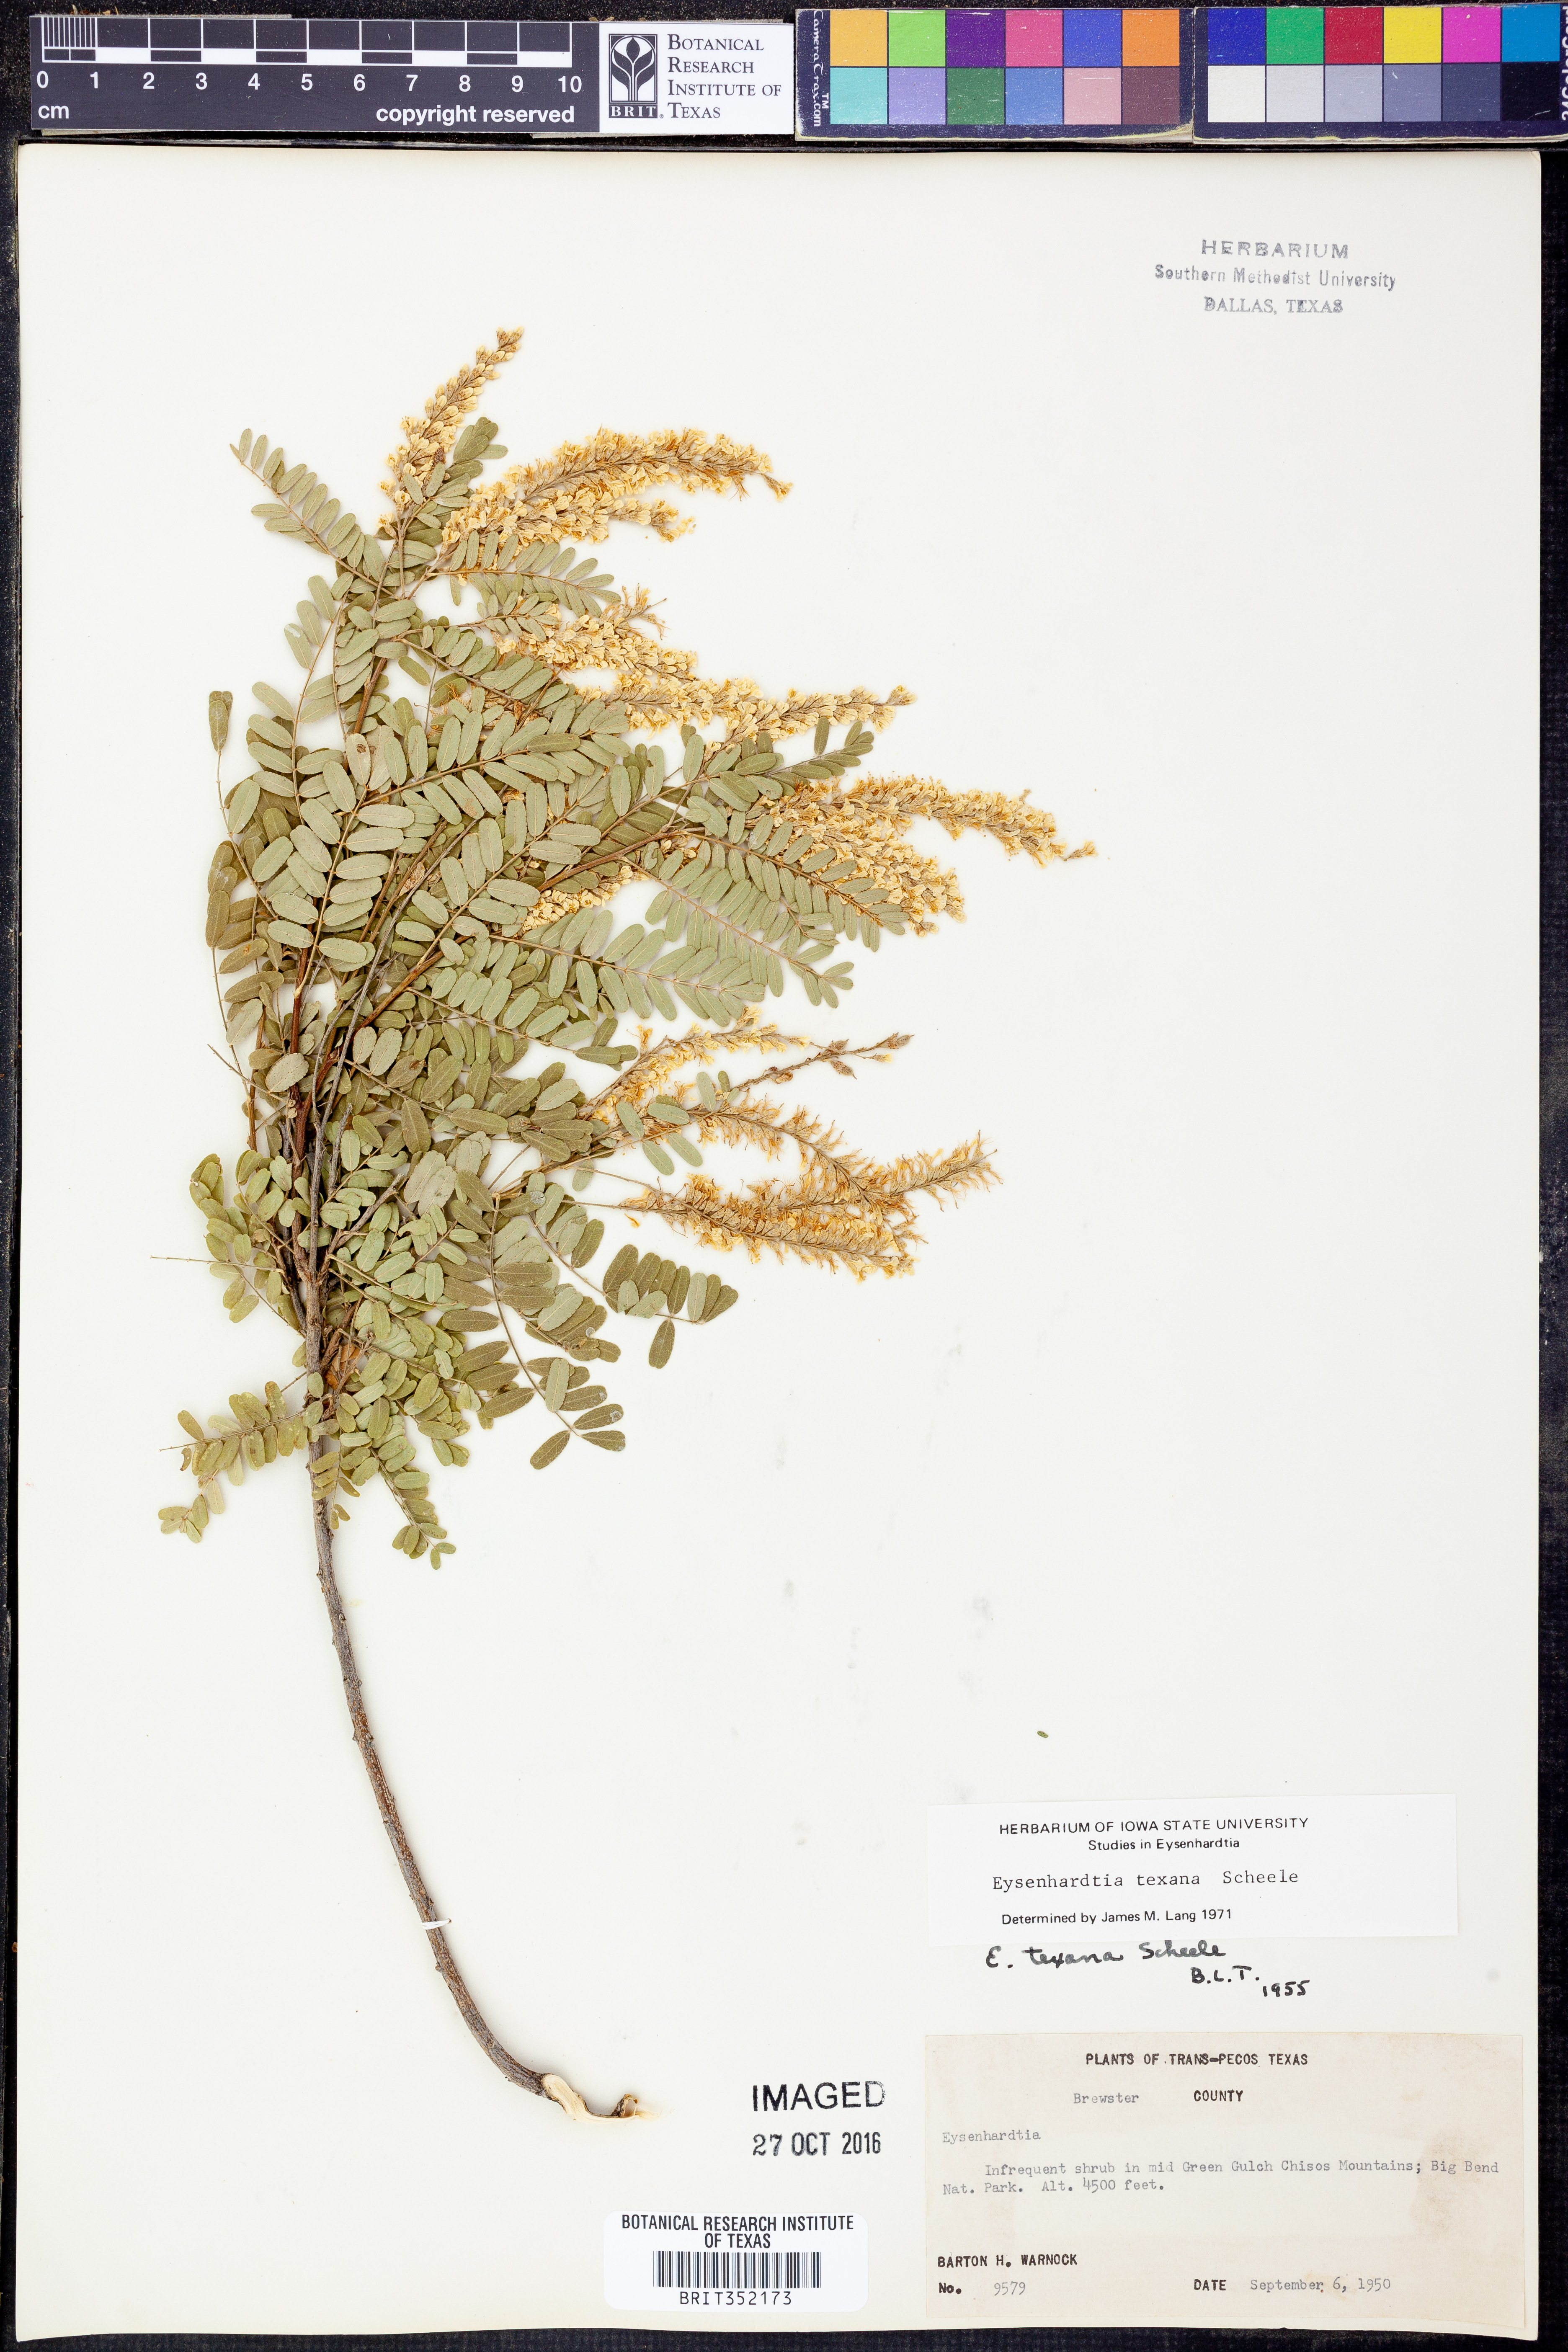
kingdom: Plantae
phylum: Tracheophyta
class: Magnoliopsida
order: Fabales
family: Fabaceae
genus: Eysenhardtia
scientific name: Eysenhardtia texana
